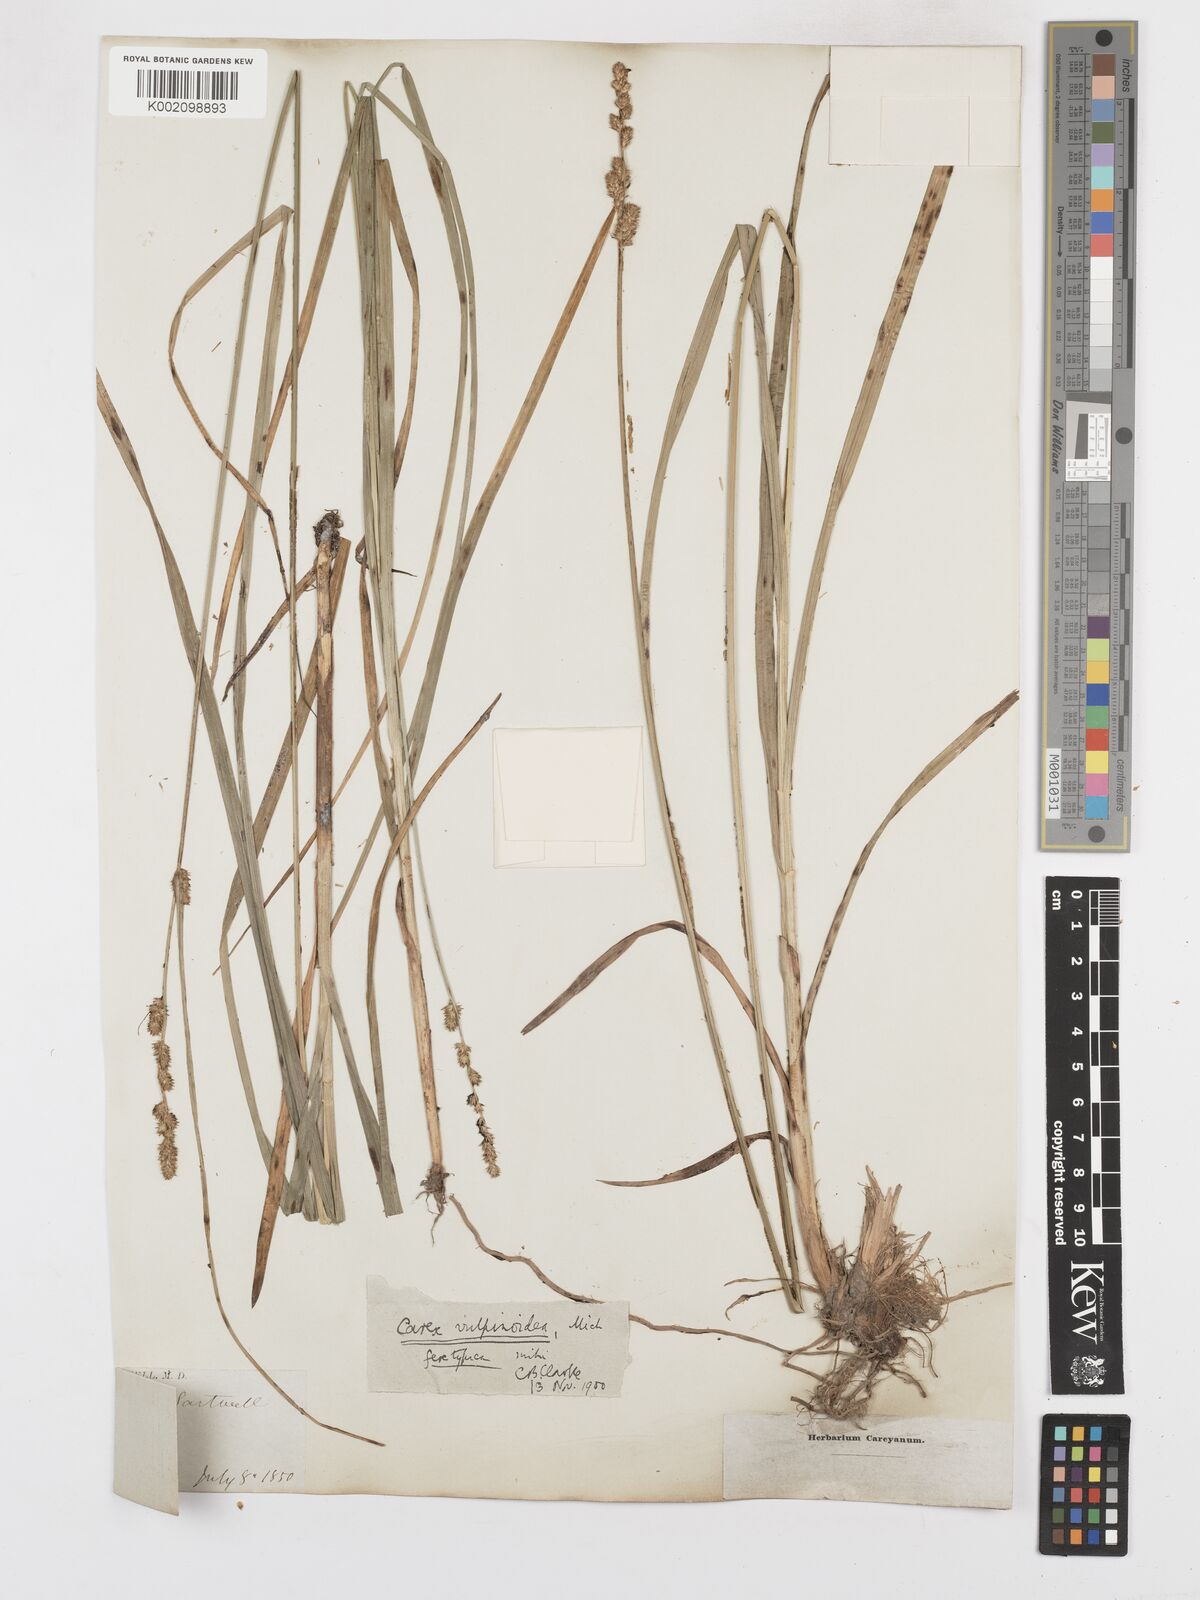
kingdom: Plantae
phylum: Tracheophyta
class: Liliopsida
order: Poales
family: Cyperaceae
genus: Carex
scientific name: Carex vulpinoidea
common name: American fox-sedge
